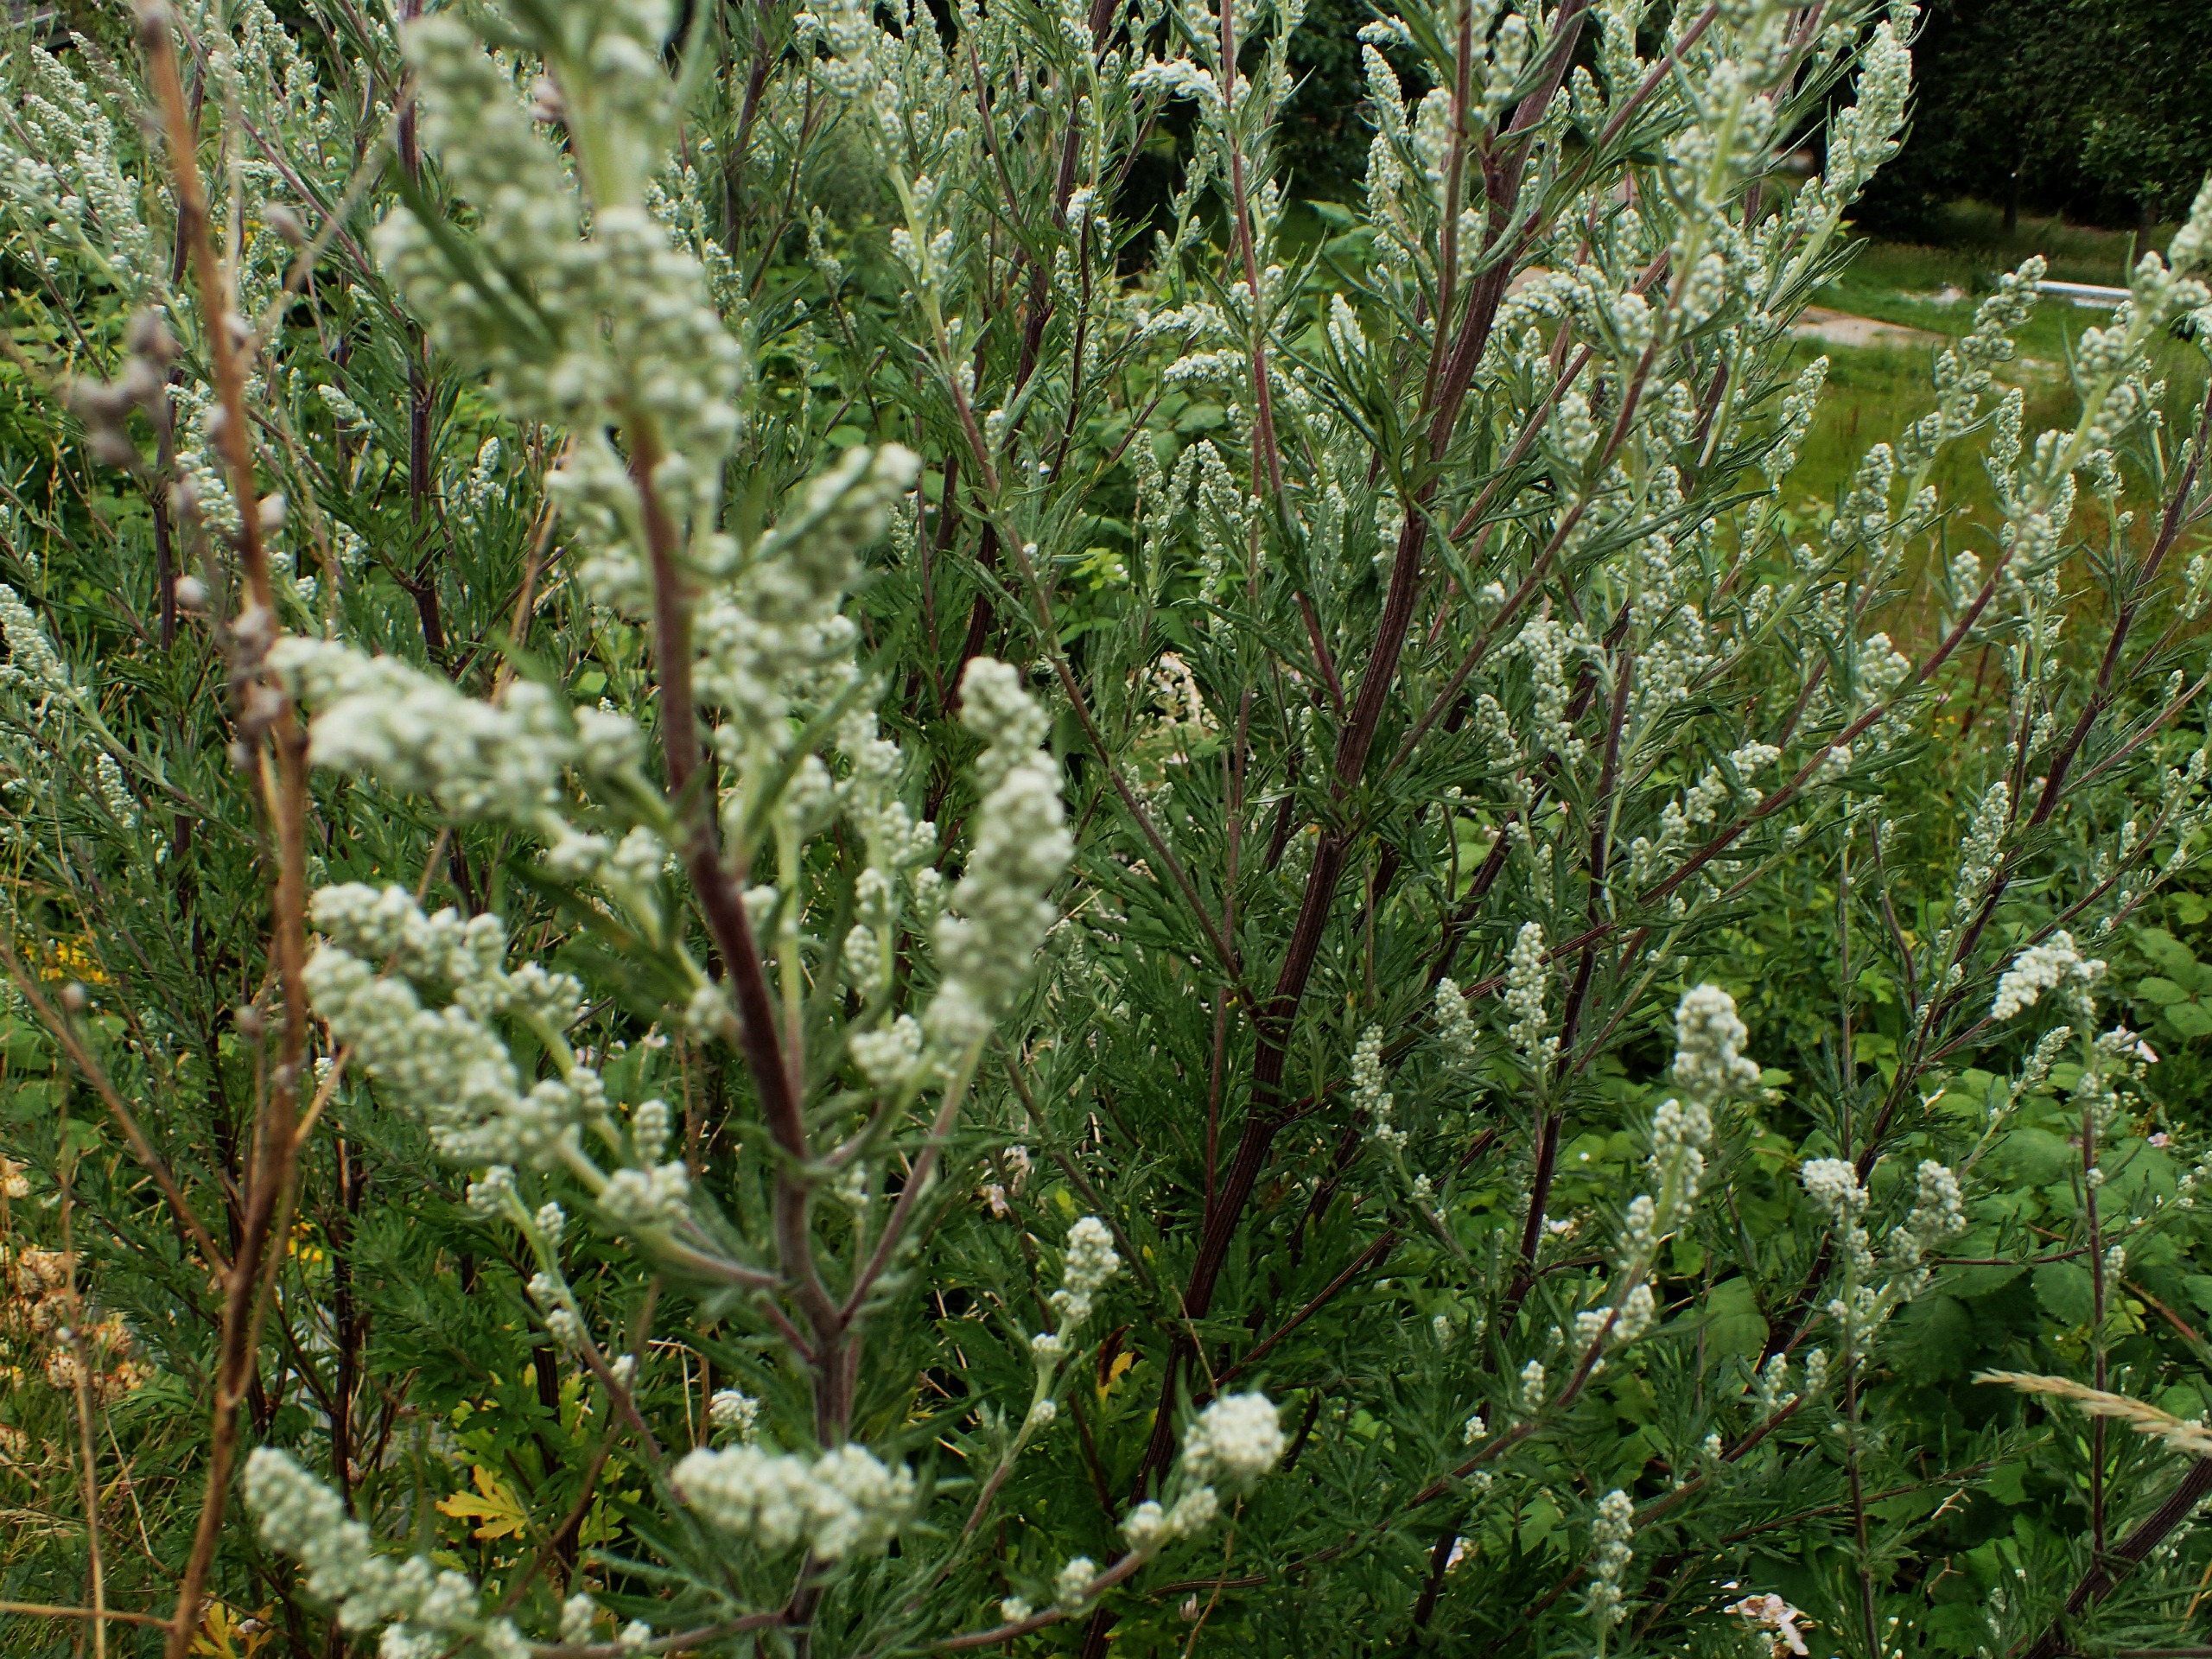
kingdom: Plantae
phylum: Tracheophyta
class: Magnoliopsida
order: Asterales
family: Asteraceae
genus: Artemisia
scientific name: Artemisia vulgaris
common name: Grå-bynke
